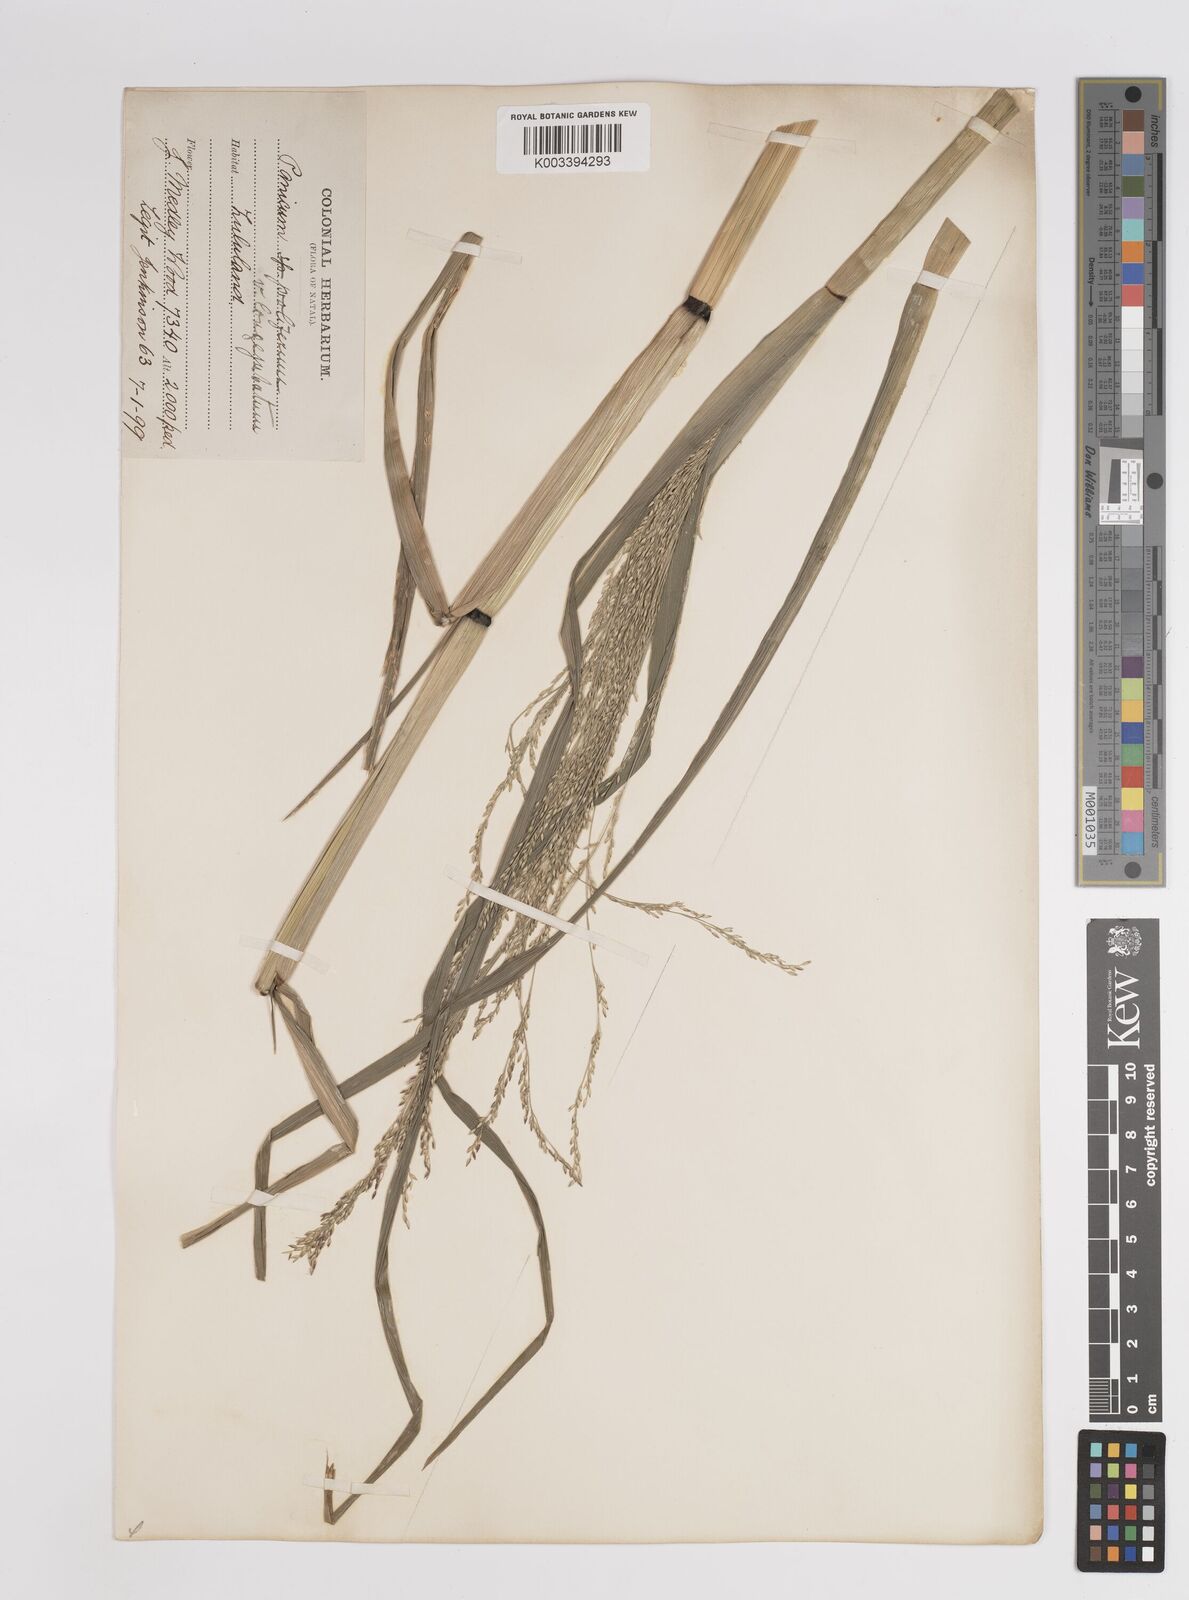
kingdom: Plantae
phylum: Tracheophyta
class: Liliopsida
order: Poales
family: Poaceae
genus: Panicum
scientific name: Panicum subalbidum
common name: Elbow buffalo grass
